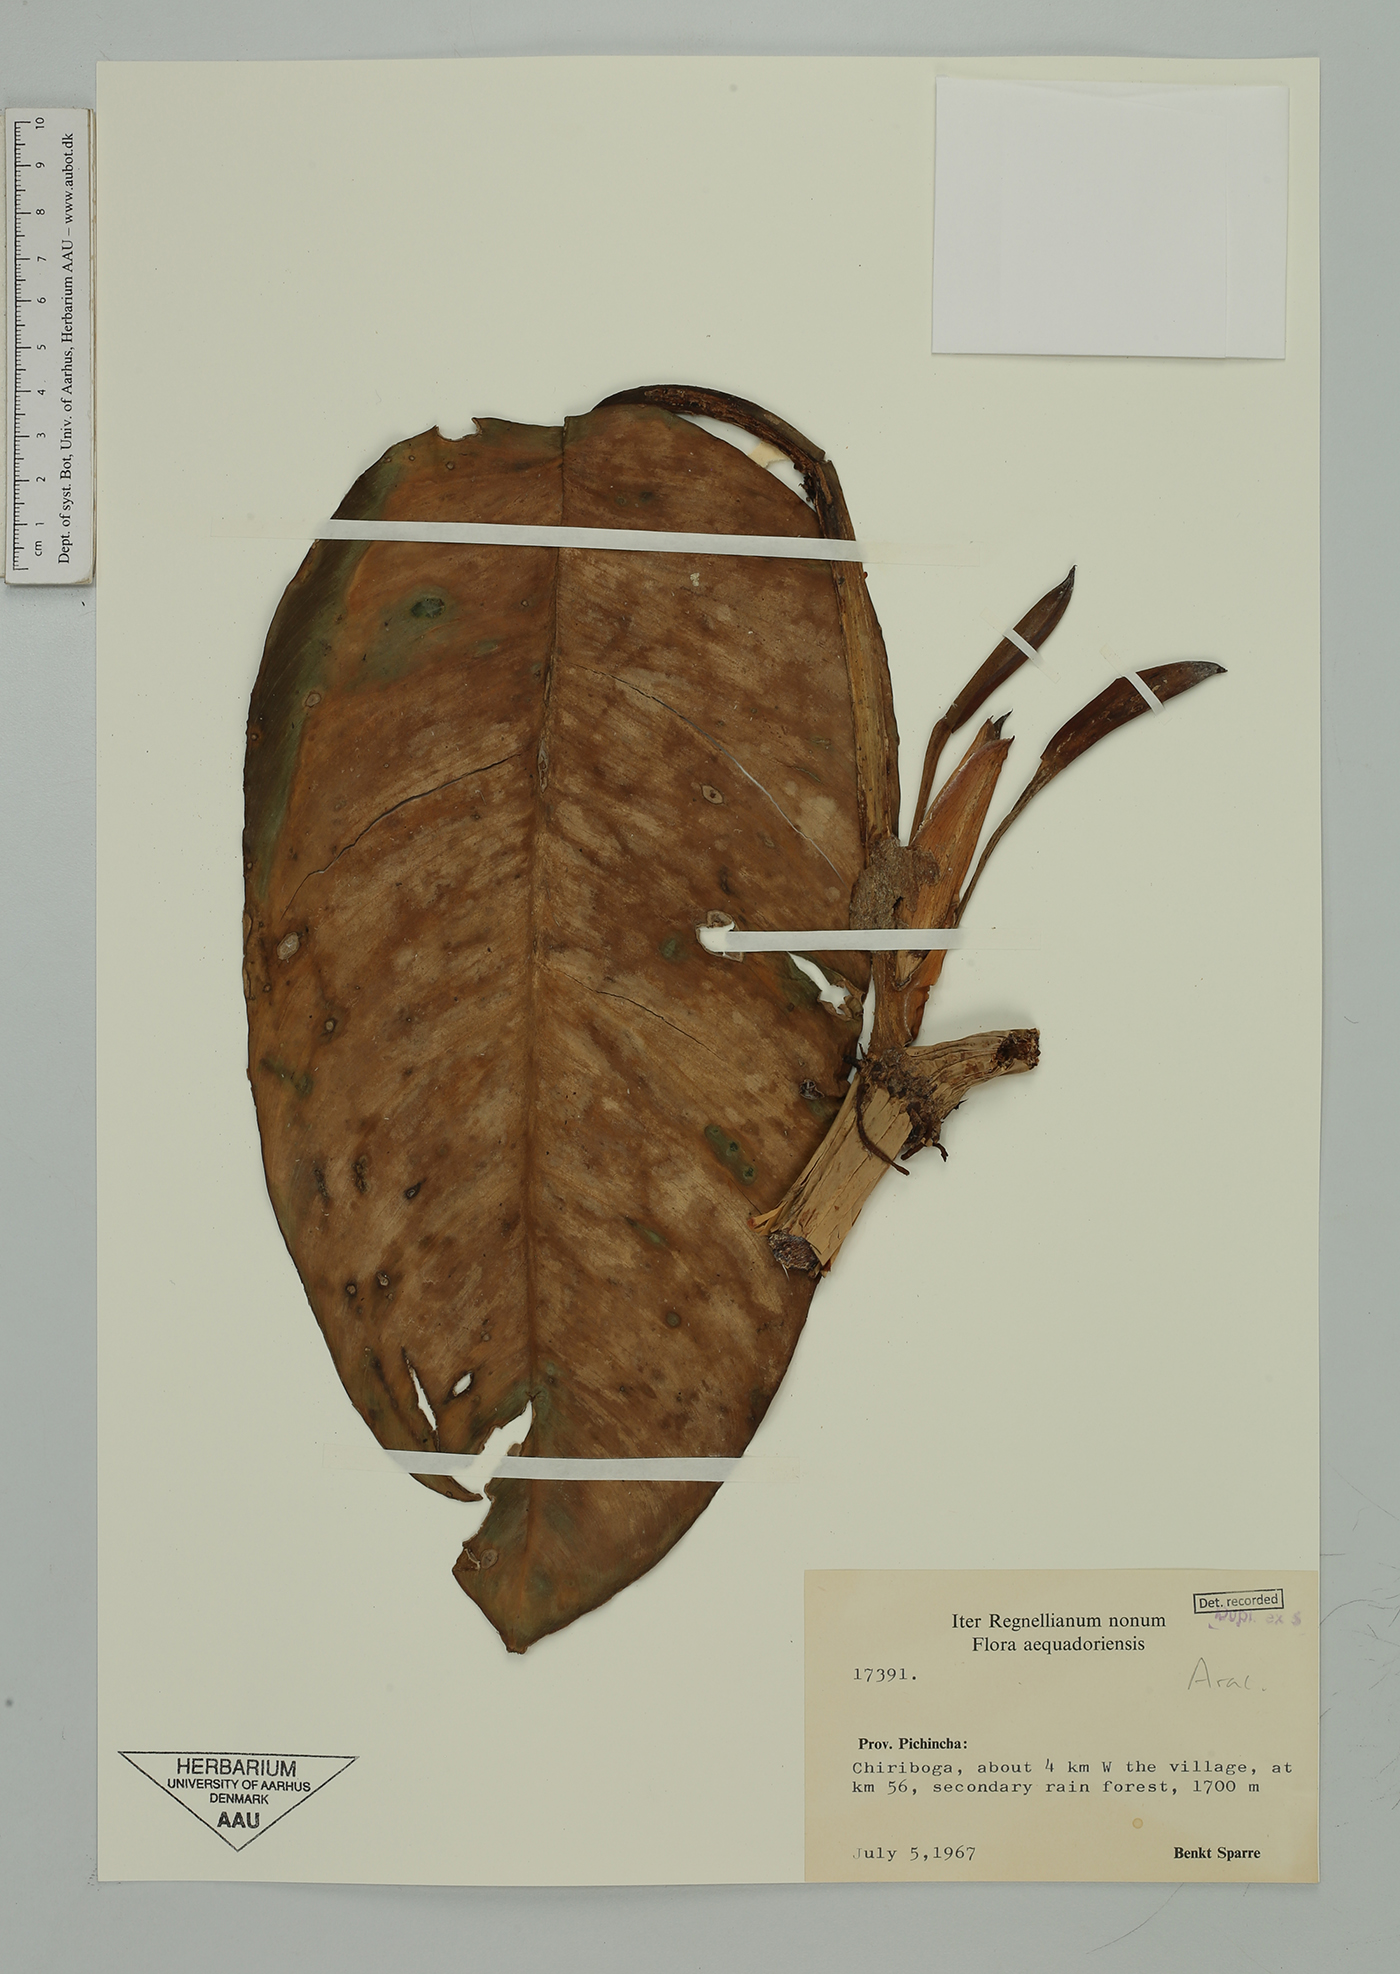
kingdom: Plantae
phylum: Tracheophyta
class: Liliopsida
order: Alismatales
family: Araceae
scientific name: Araceae
